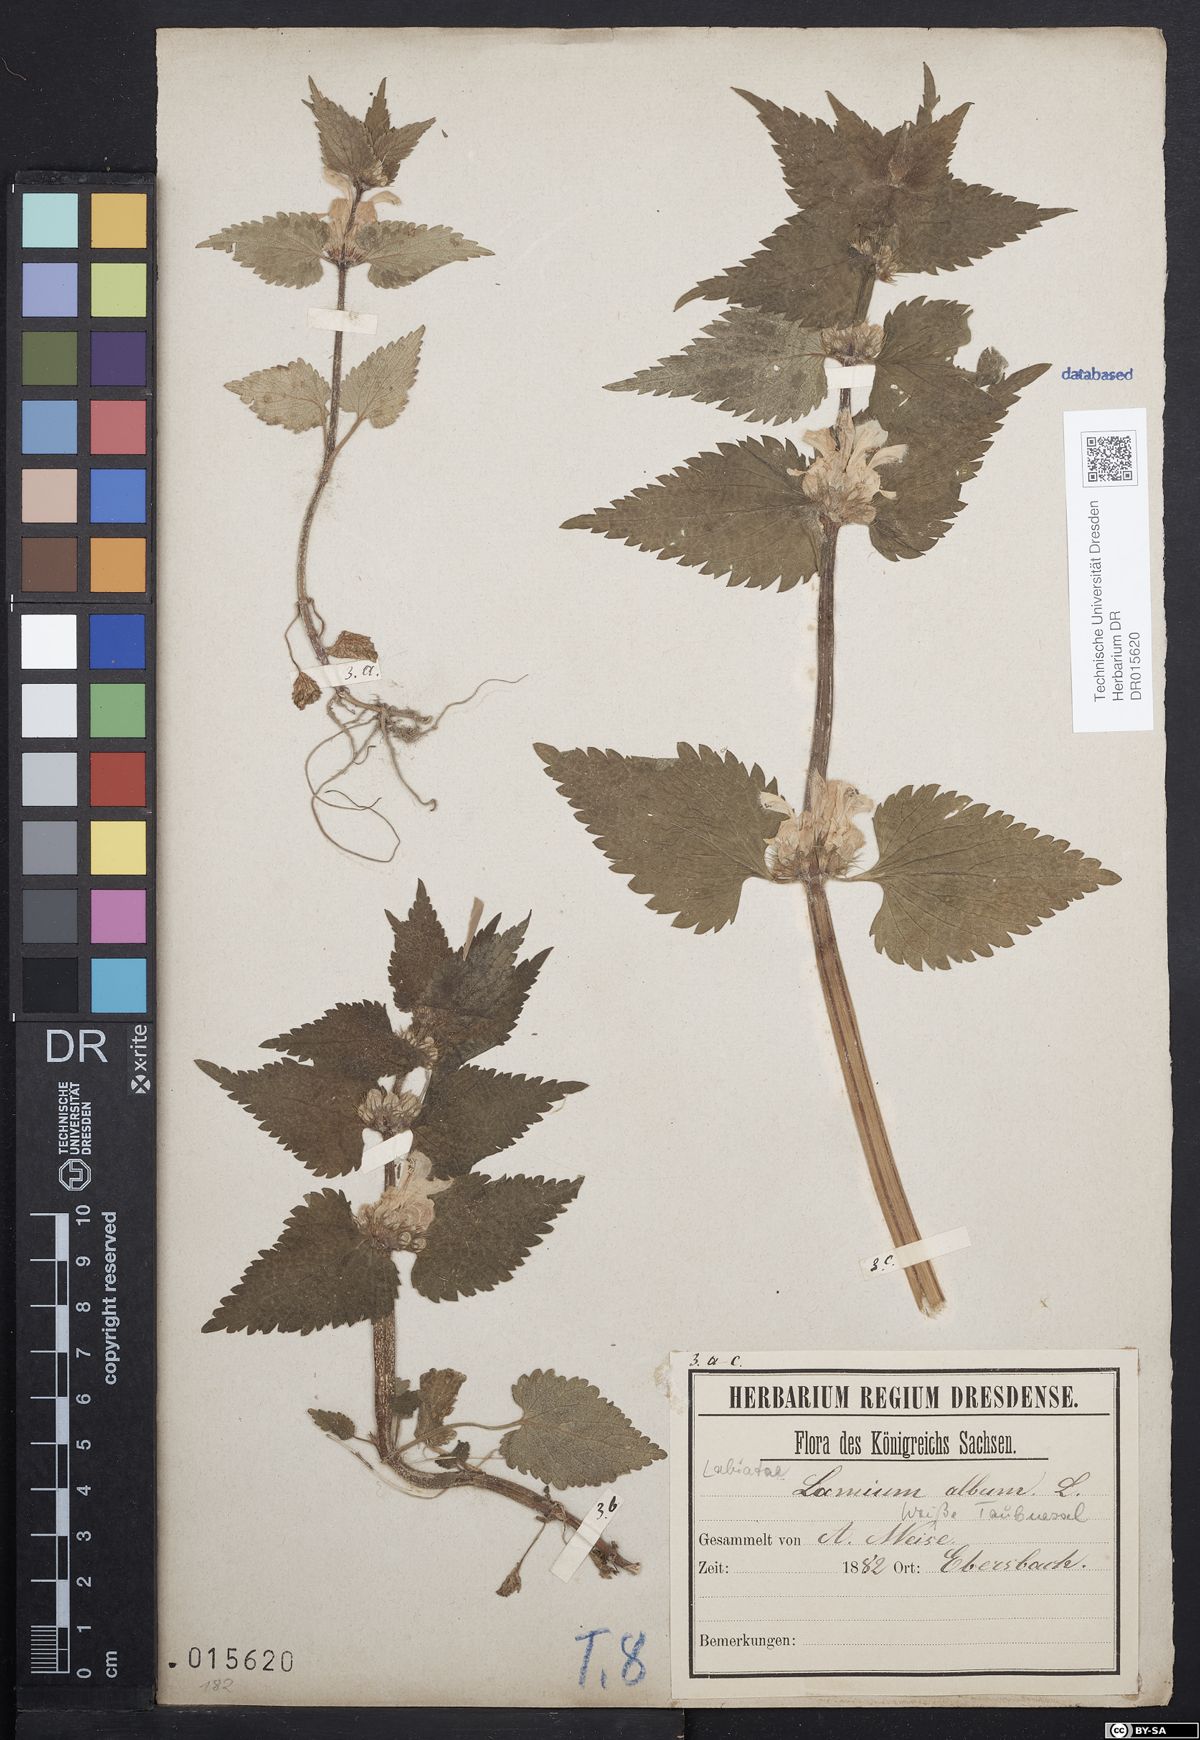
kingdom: Plantae
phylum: Tracheophyta
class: Magnoliopsida
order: Lamiales
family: Lamiaceae
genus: Lamium
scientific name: Lamium album
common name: White dead-nettle
